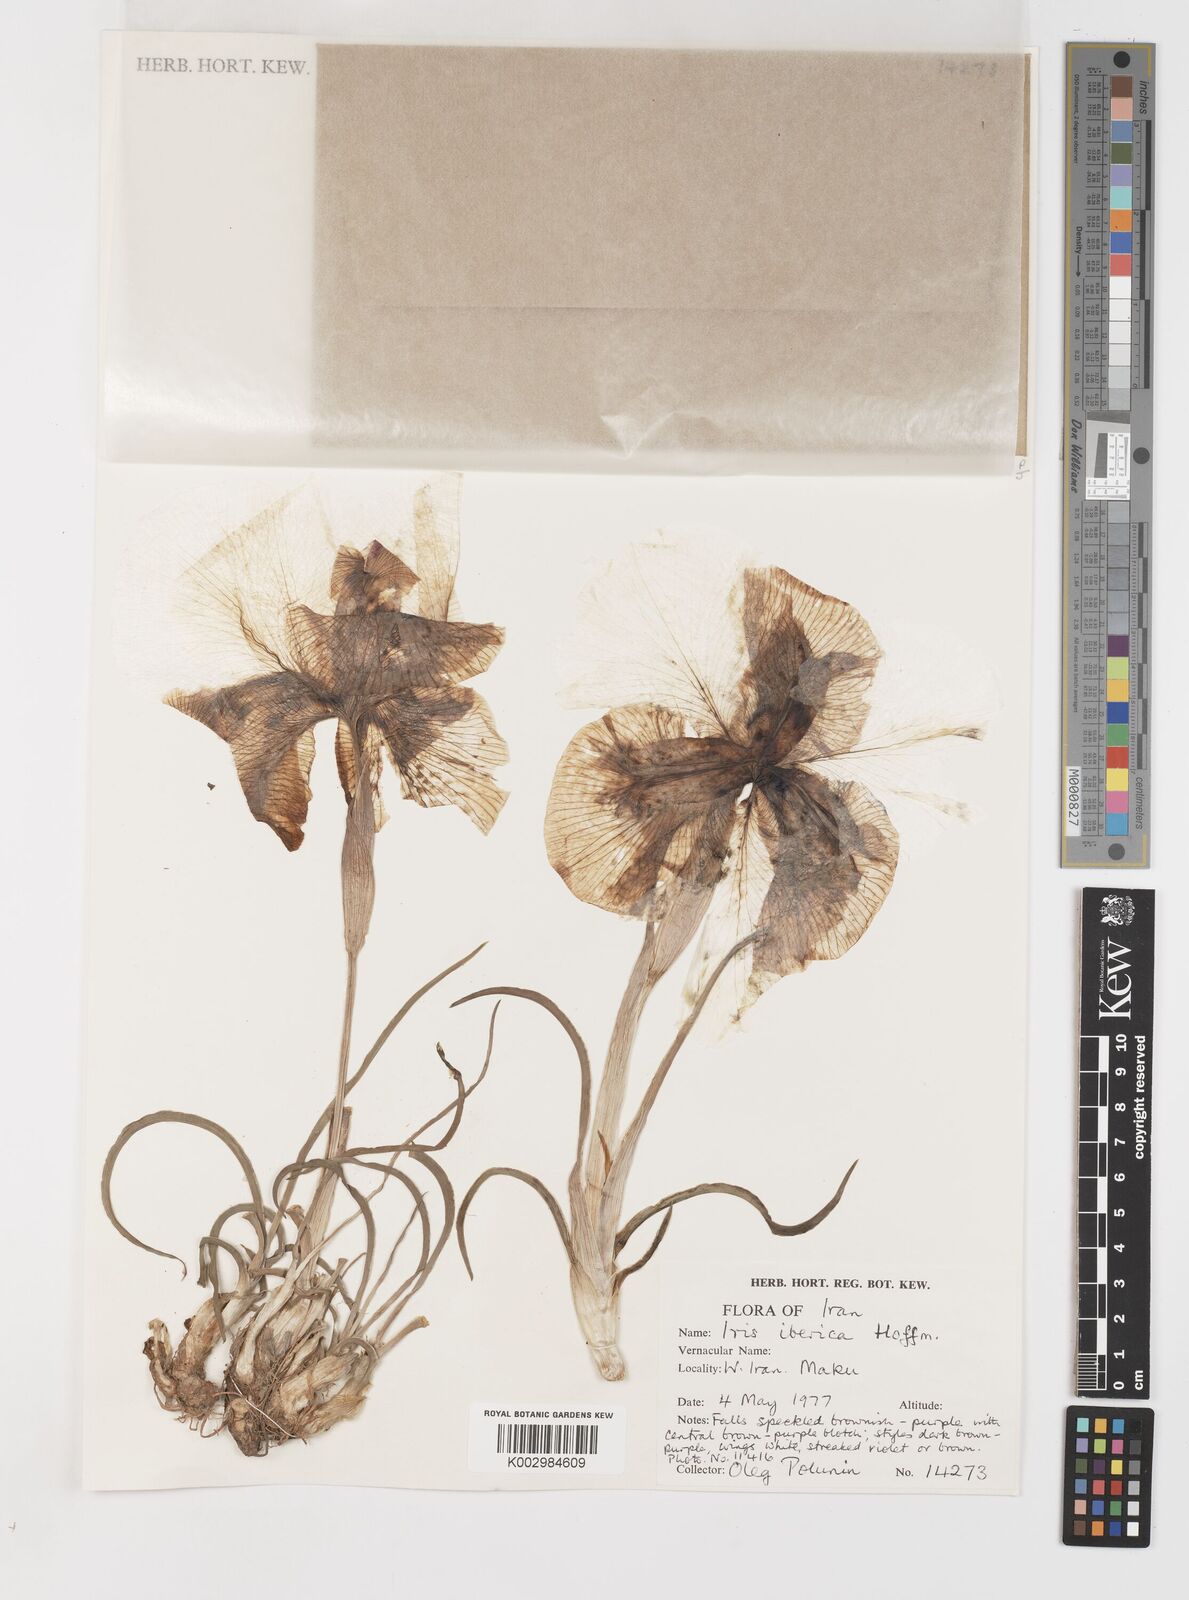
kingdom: Plantae
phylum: Tracheophyta
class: Liliopsida
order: Asparagales
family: Iridaceae
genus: Iris
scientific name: Iris iberica
